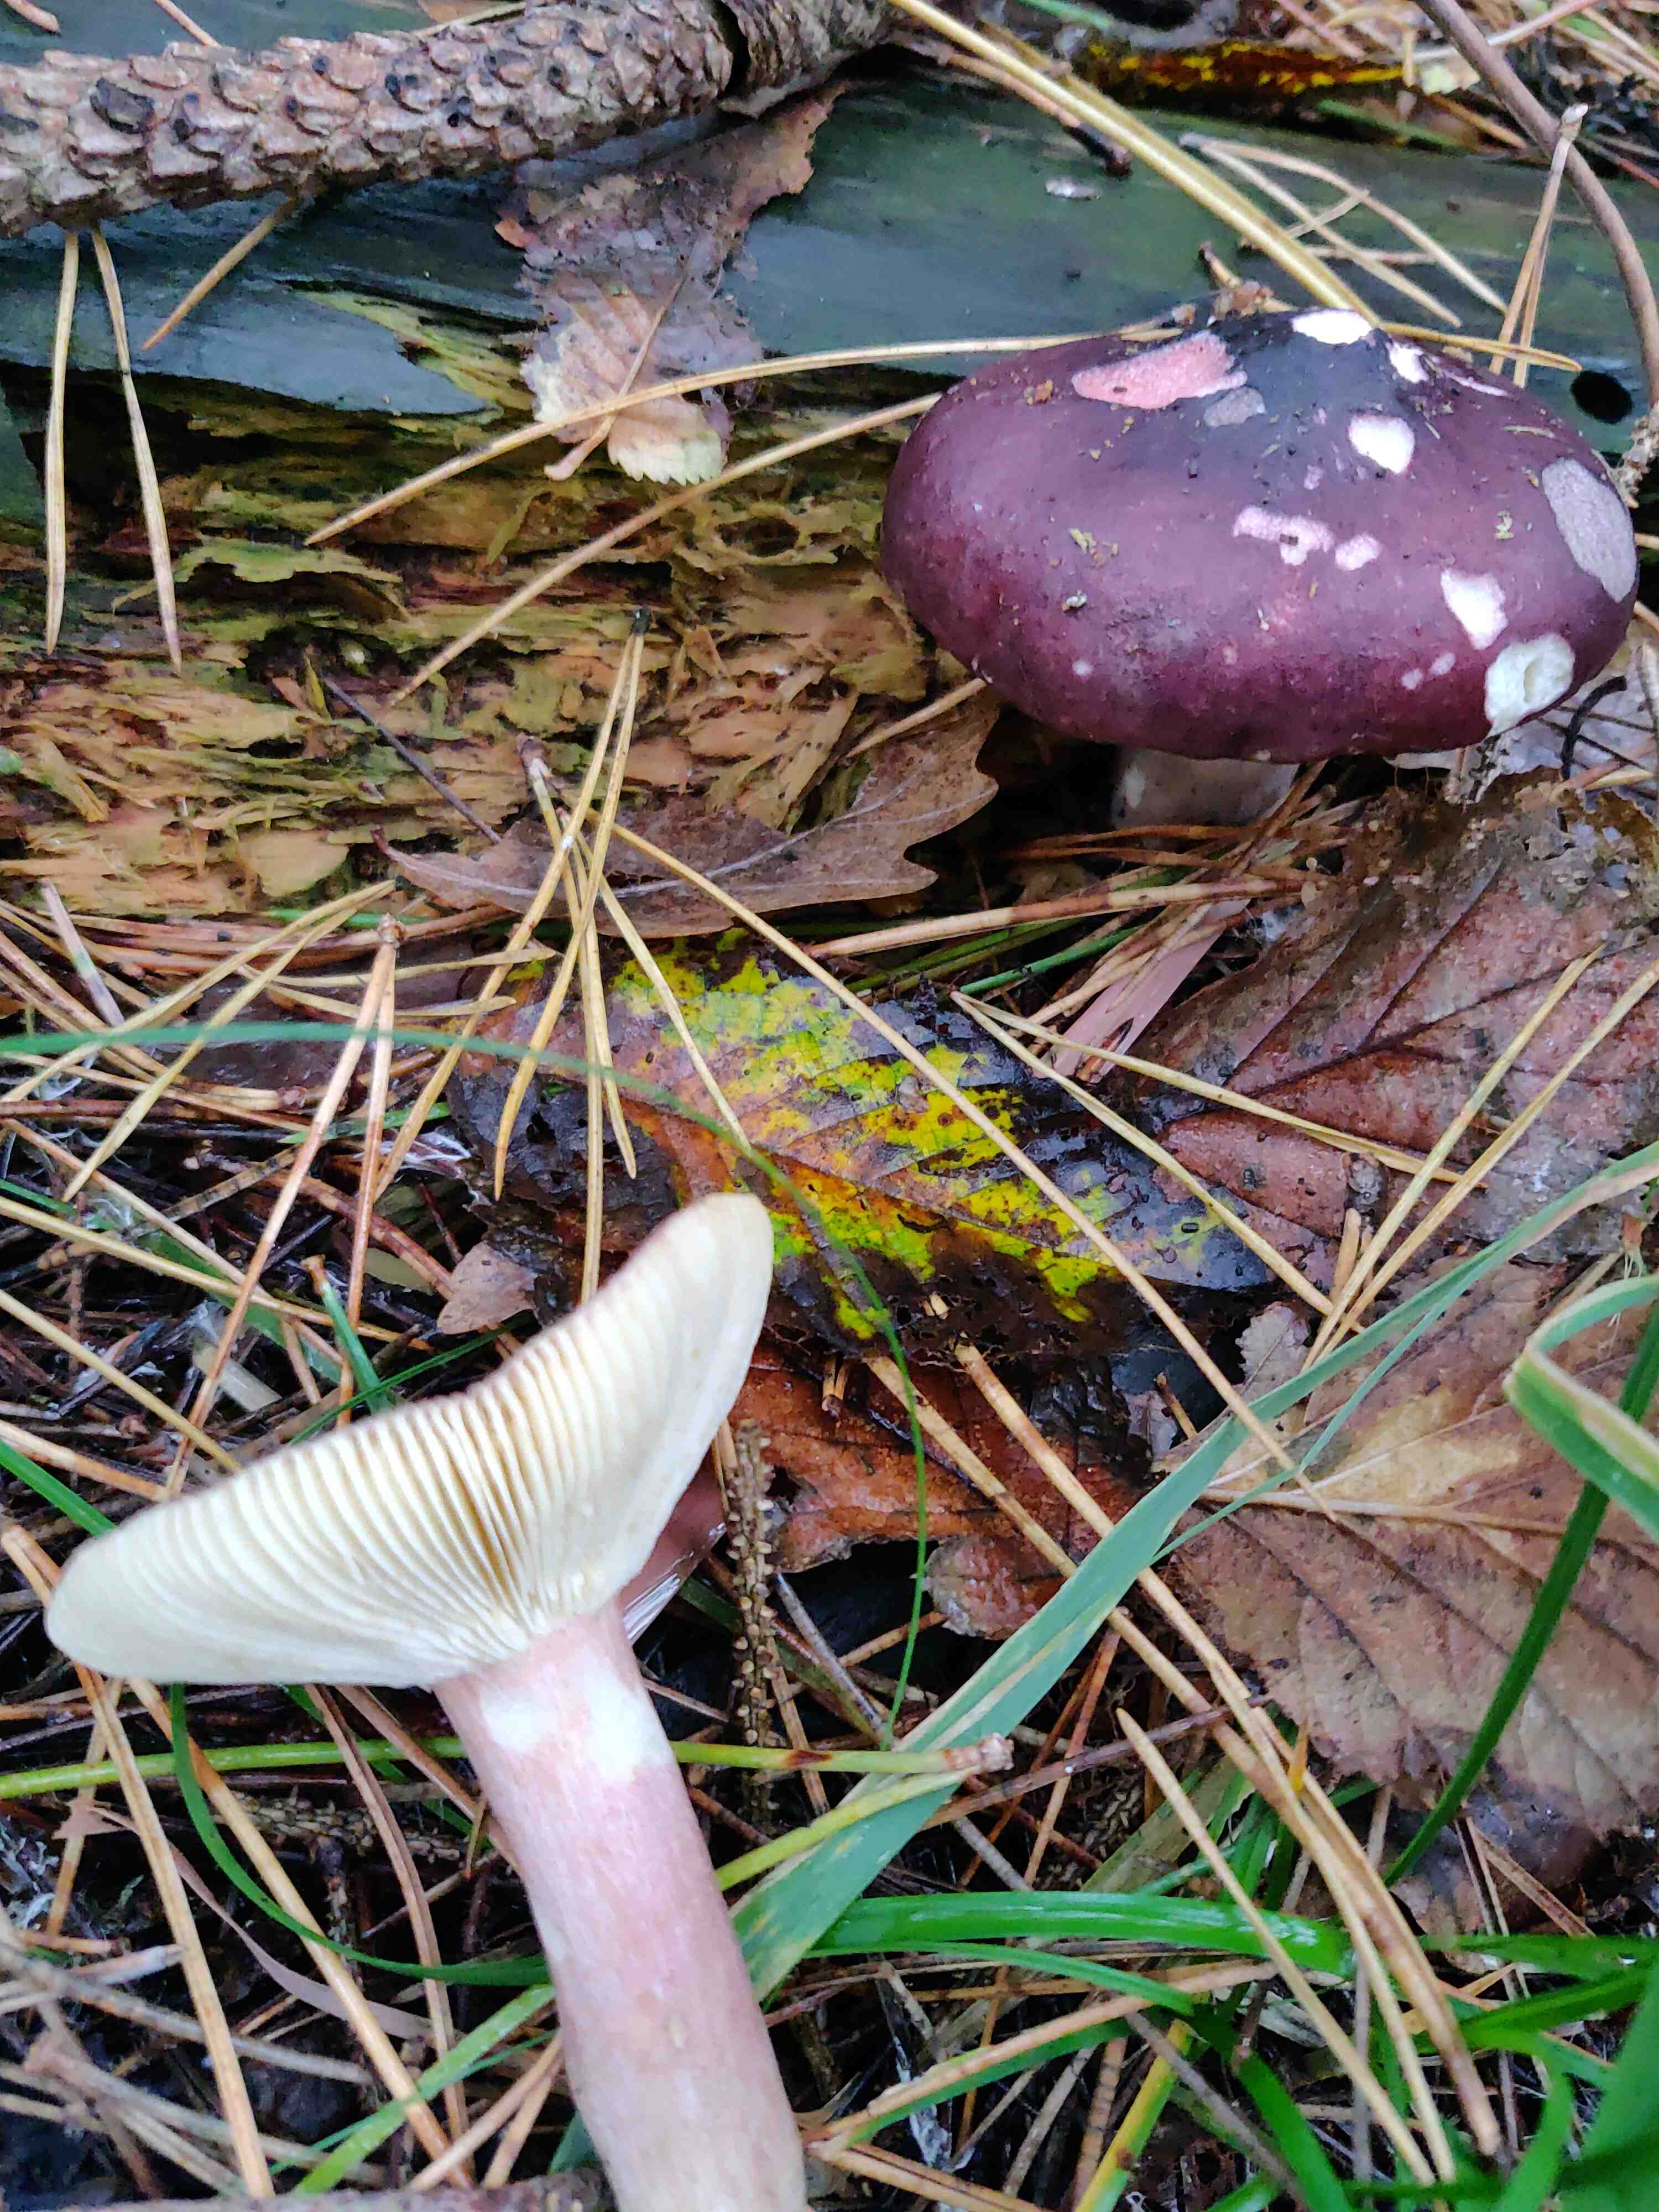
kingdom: Fungi
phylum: Basidiomycota
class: Agaricomycetes
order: Russulales
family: Russulaceae
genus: Russula
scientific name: Russula
